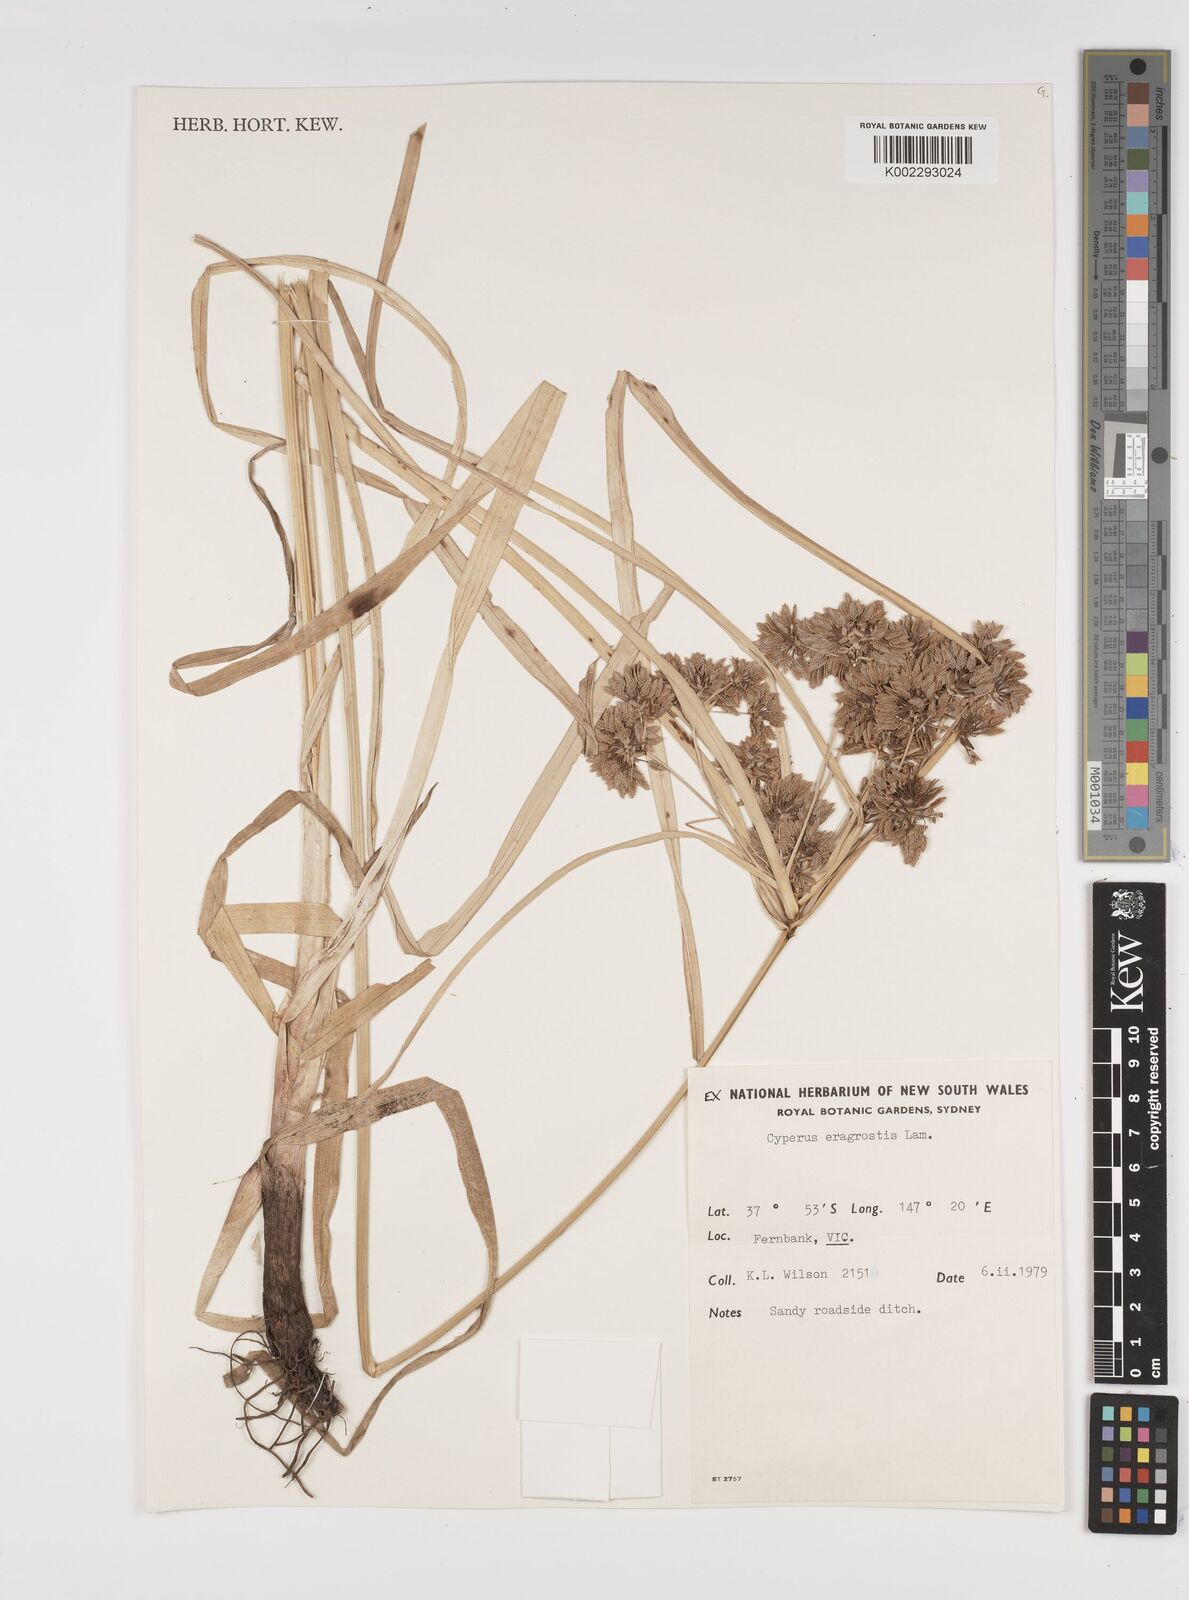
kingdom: Plantae
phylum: Tracheophyta
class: Liliopsida
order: Poales
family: Cyperaceae
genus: Cyperus
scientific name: Cyperus eragrostis
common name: Tall flatsedge
